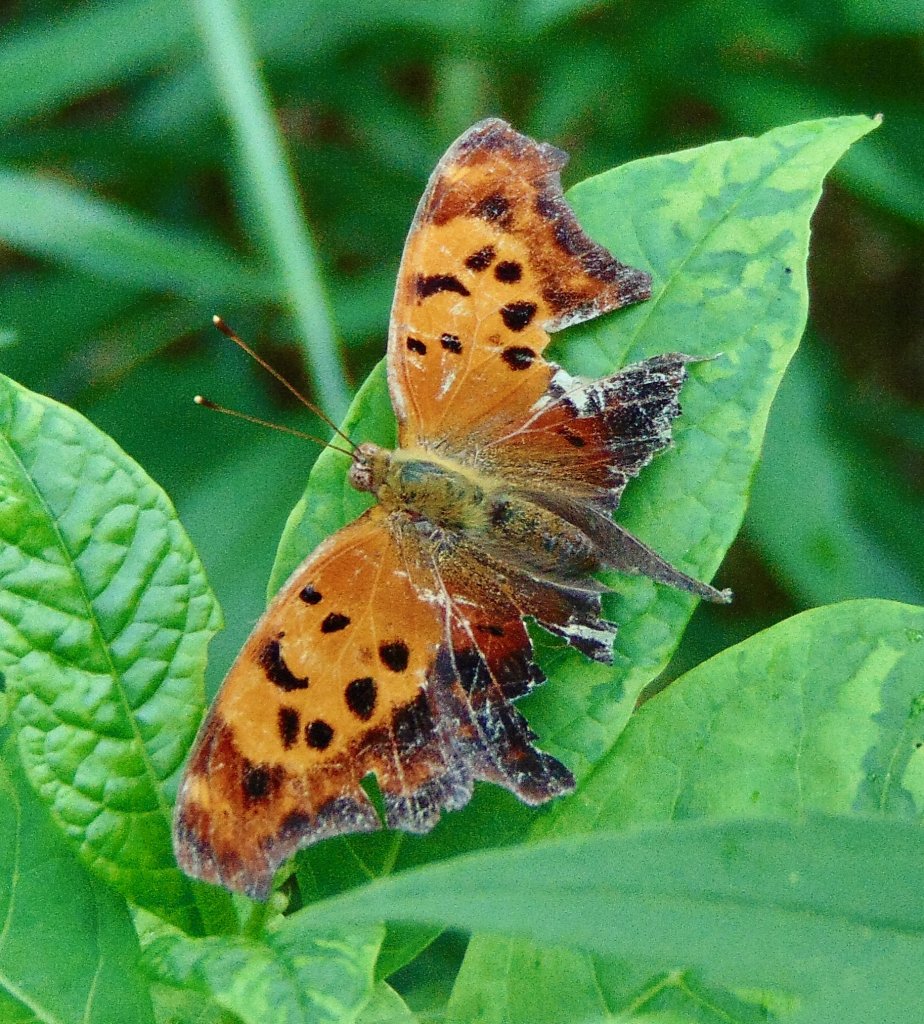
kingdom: Animalia
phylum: Arthropoda
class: Insecta
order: Lepidoptera
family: Nymphalidae
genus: Polygonia
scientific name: Polygonia interrogationis
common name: Question Mark
